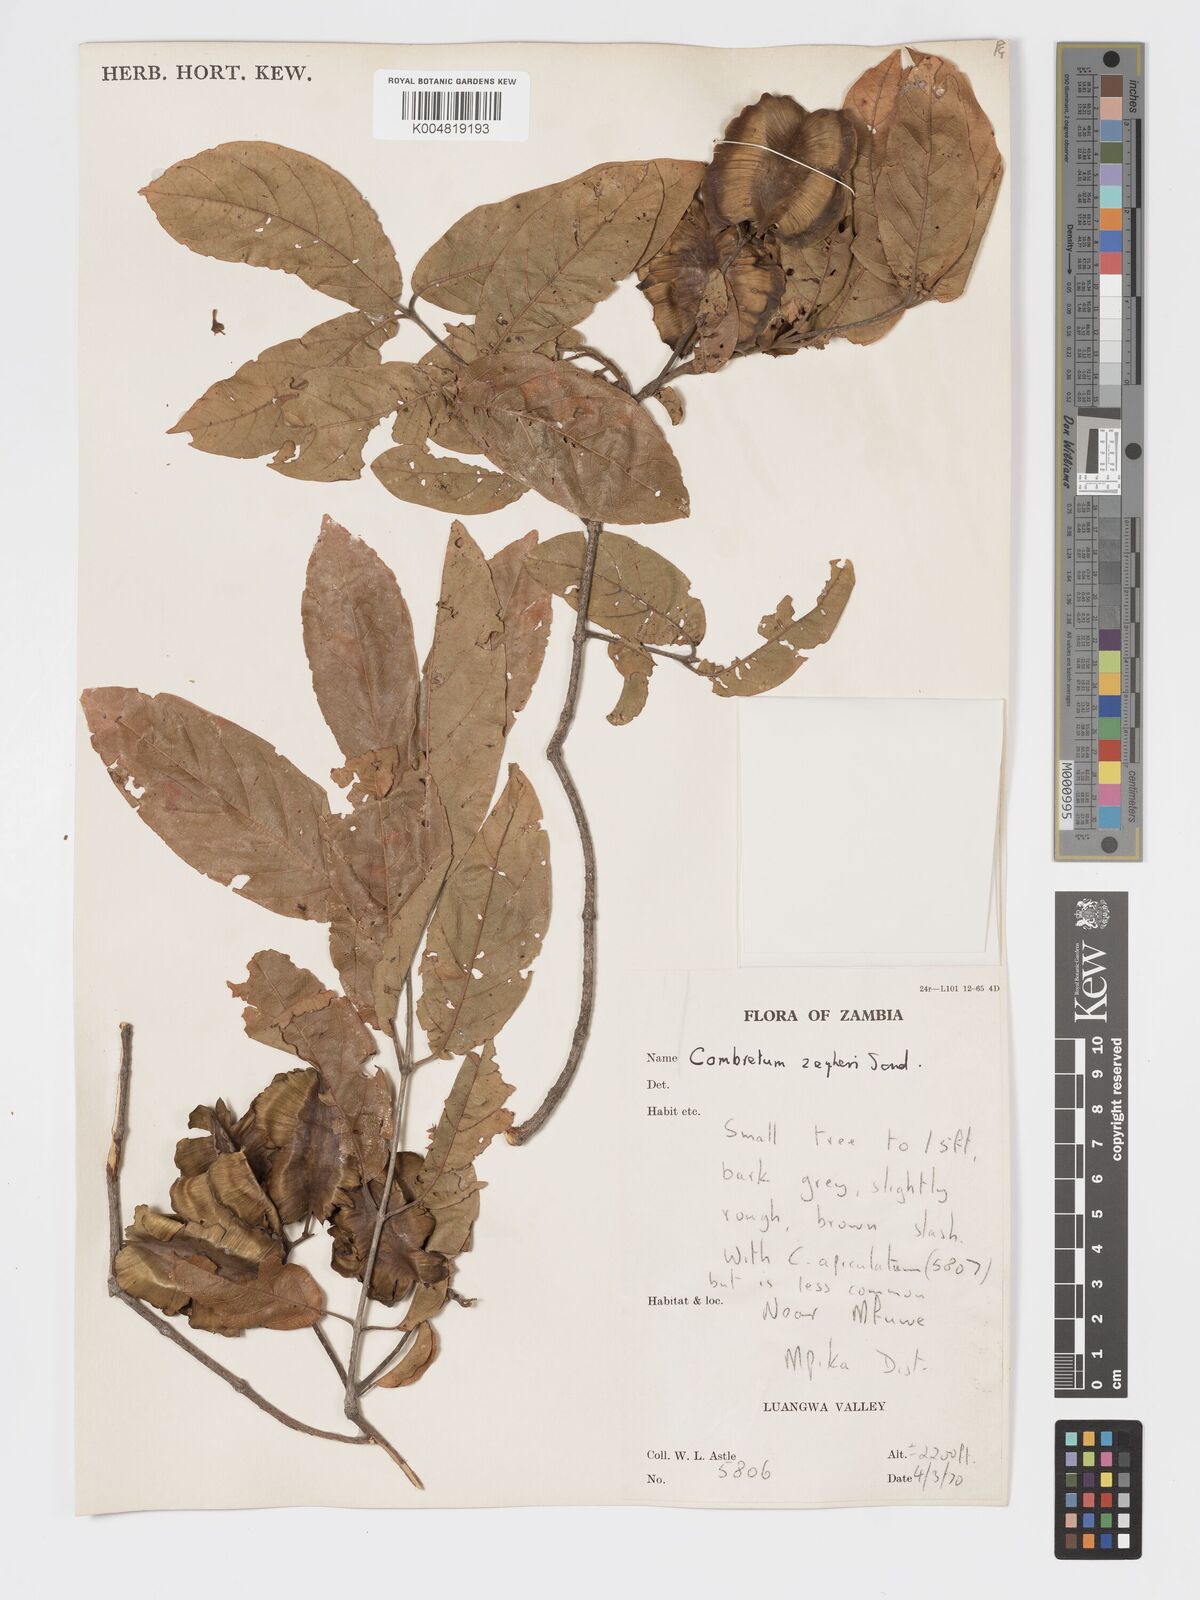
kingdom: Plantae
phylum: Tracheophyta
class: Magnoliopsida
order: Myrtales
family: Combretaceae
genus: Combretum
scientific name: Combretum zeyheri
